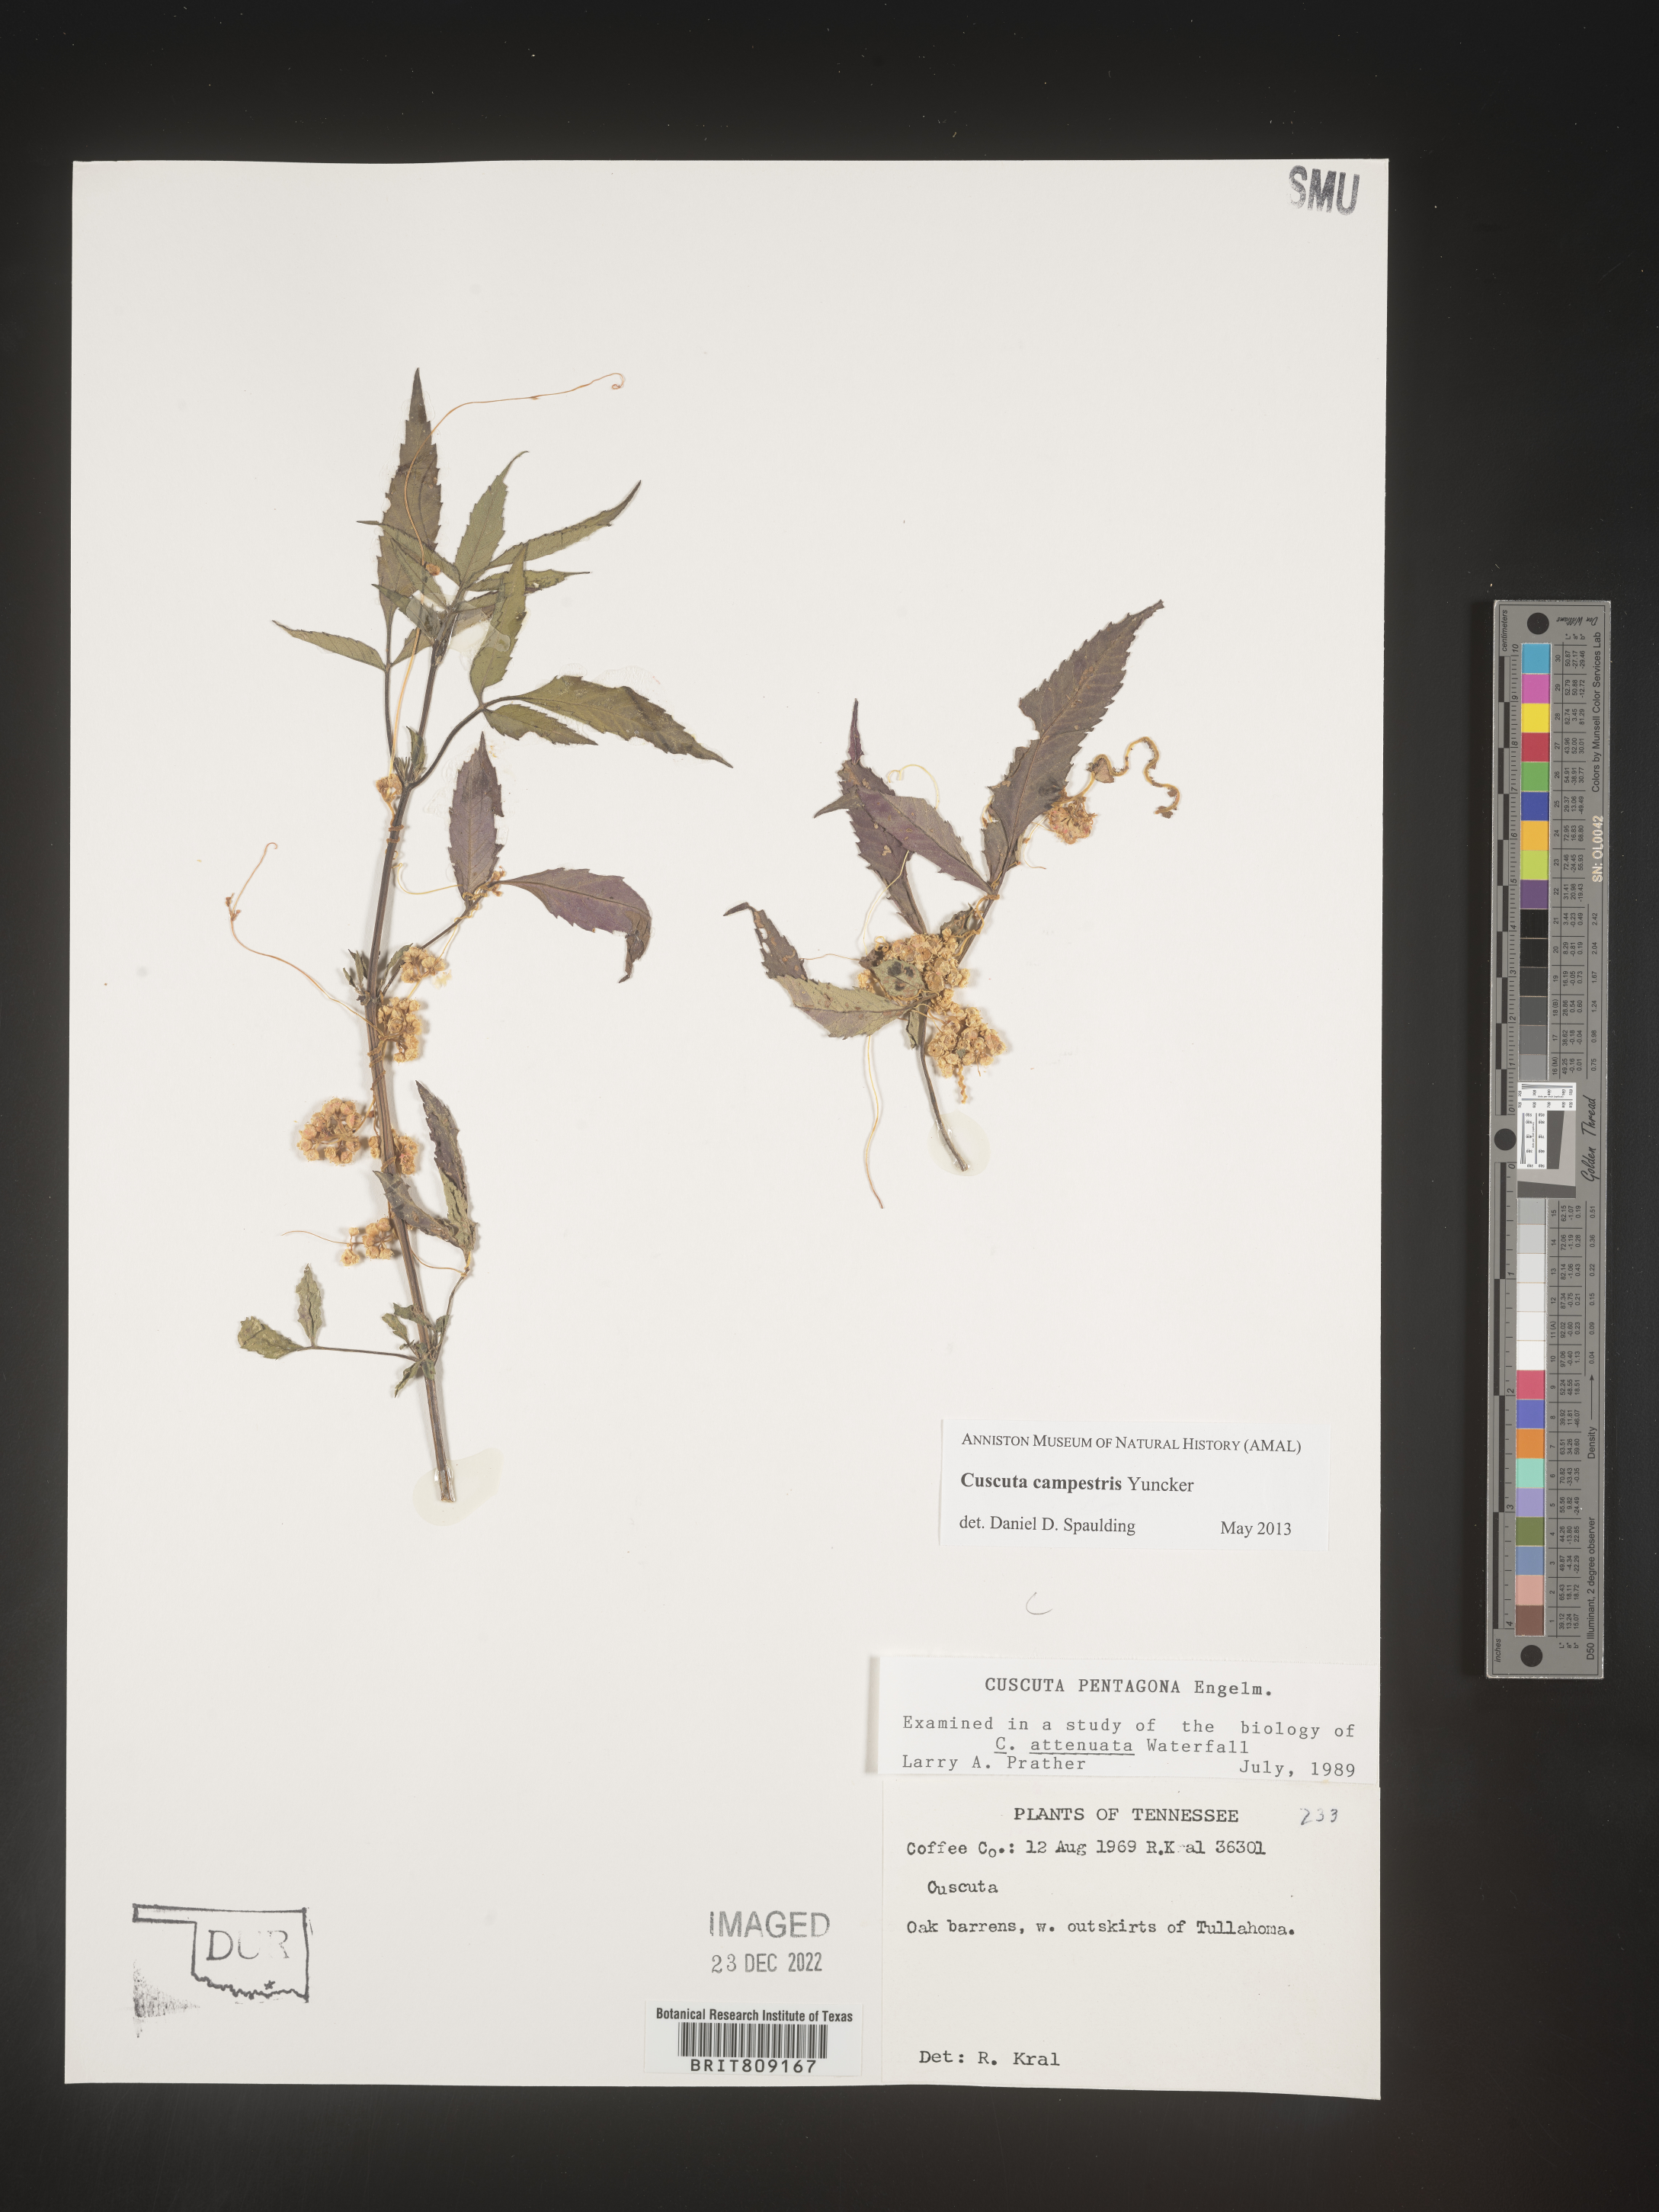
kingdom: Plantae
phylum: Tracheophyta
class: Magnoliopsida
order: Solanales
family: Convolvulaceae
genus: Cuscuta
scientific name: Cuscuta campestris
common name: Yellow dodder
